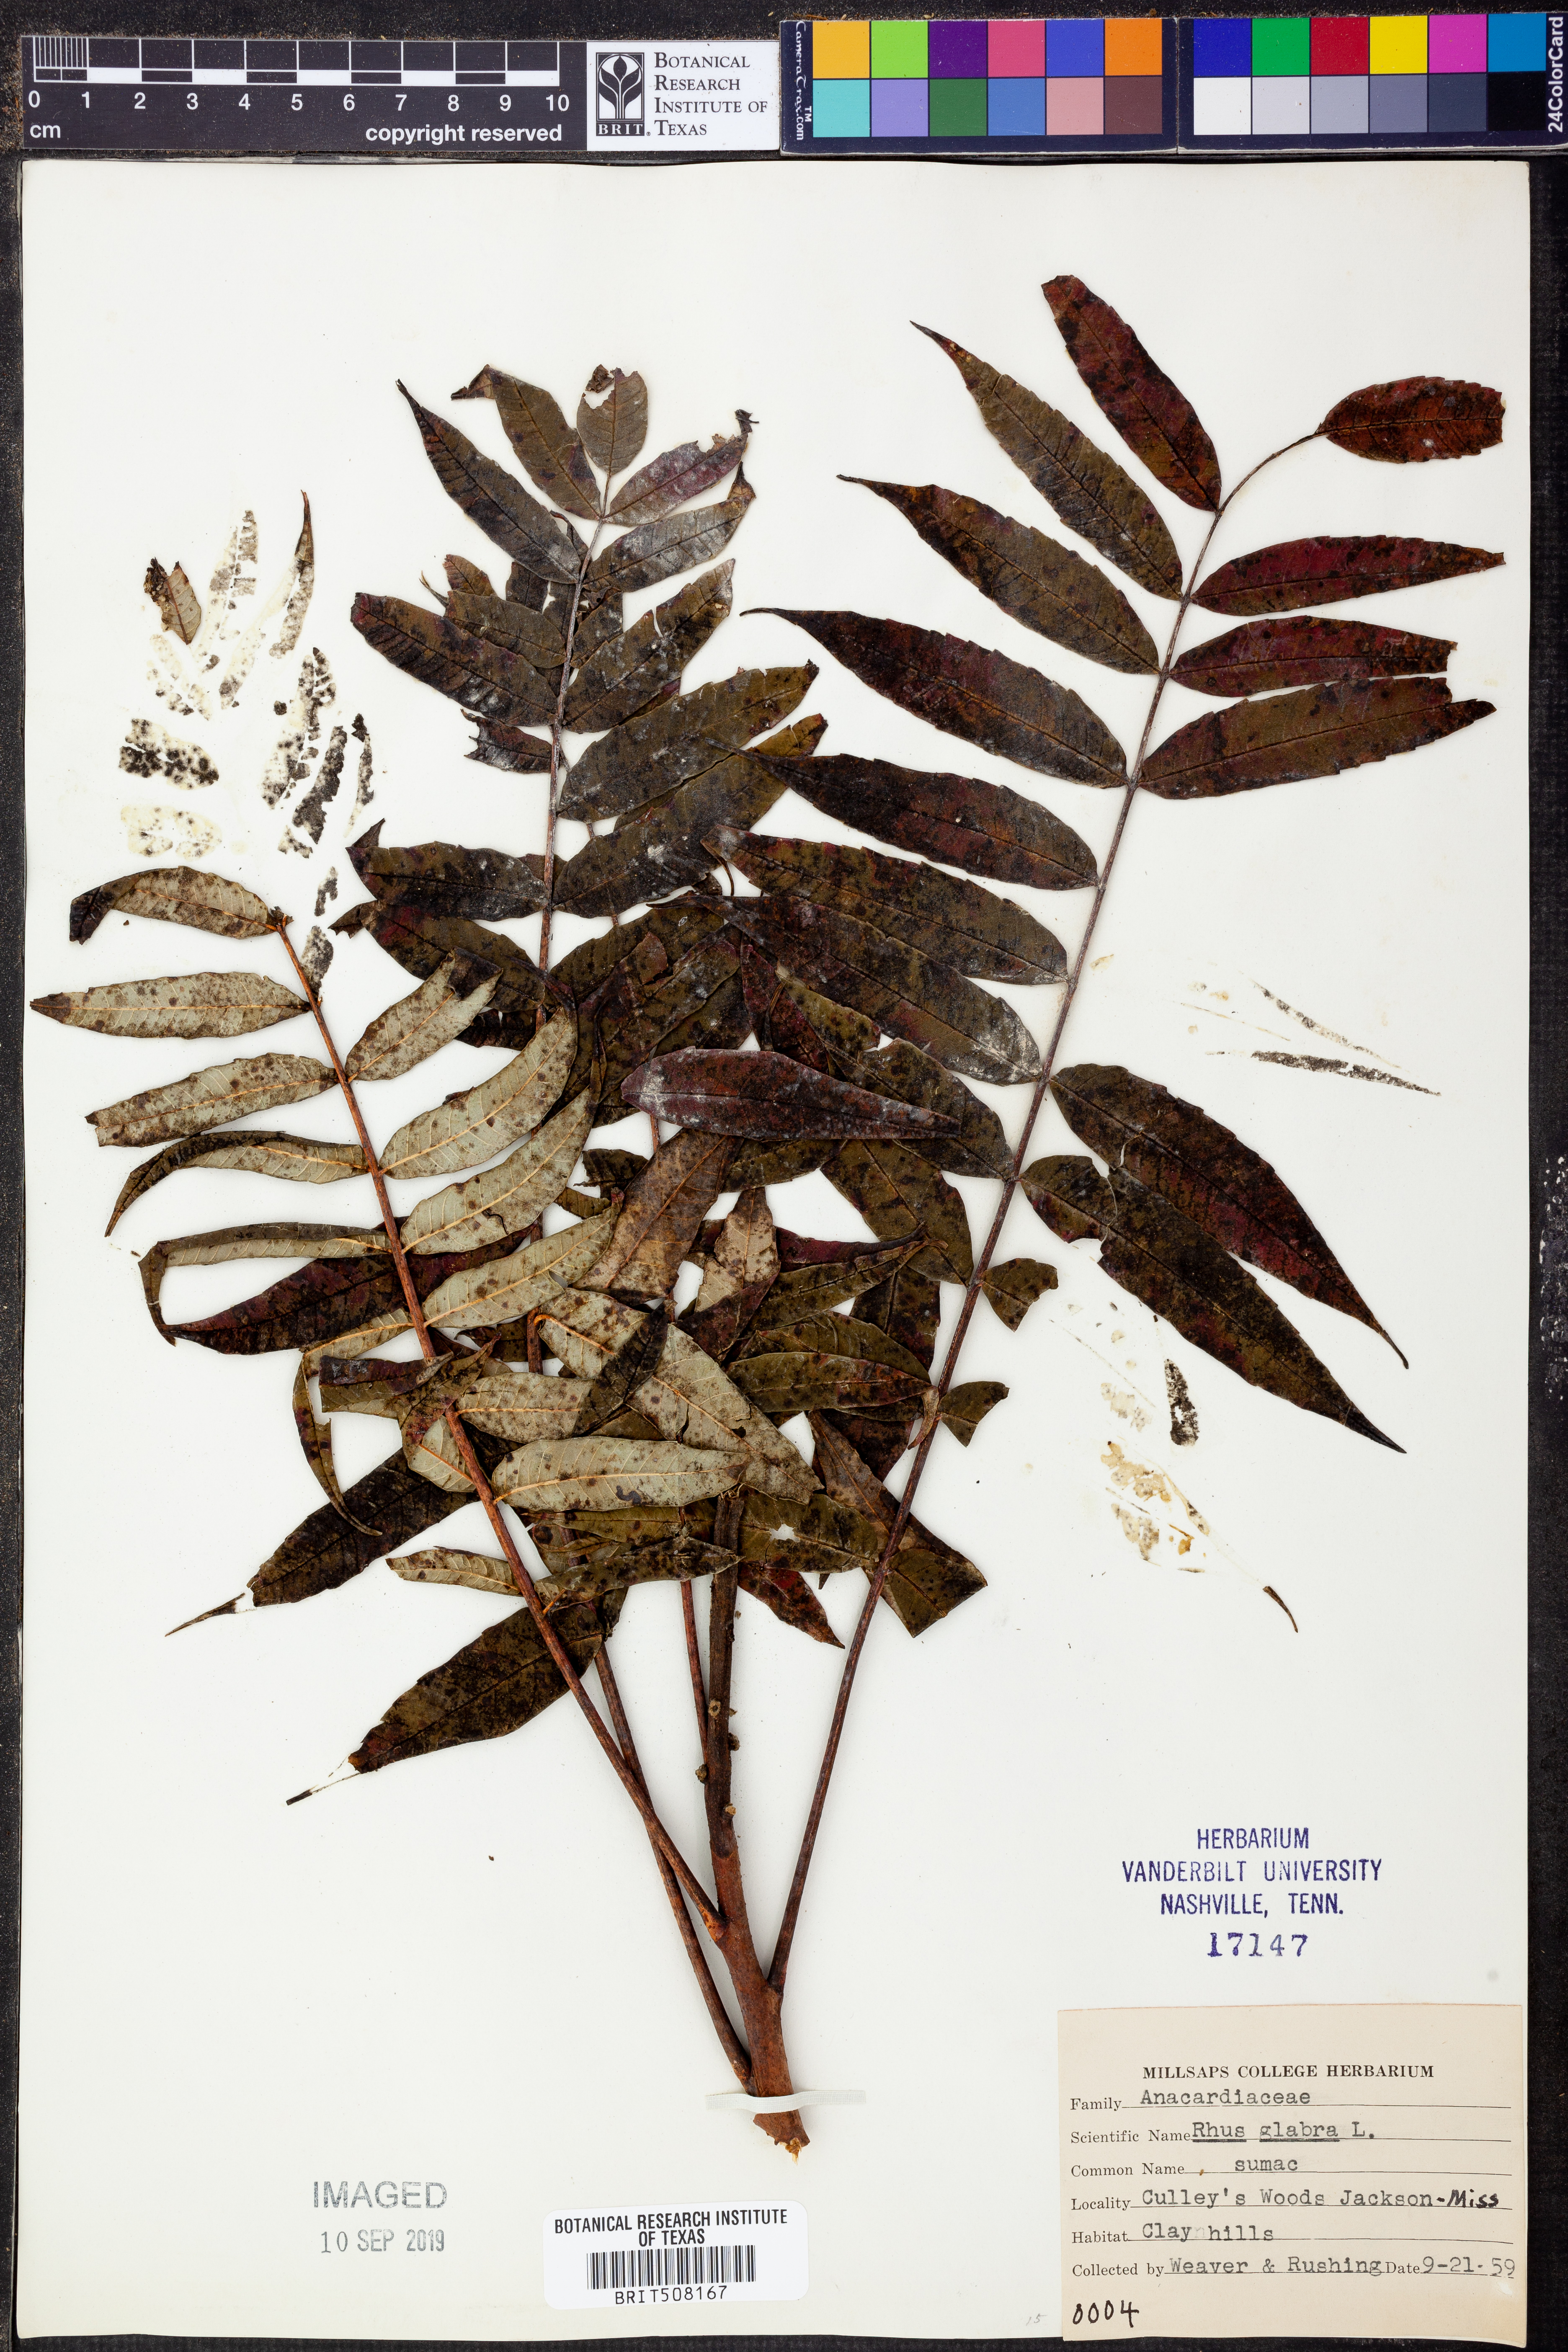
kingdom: Plantae
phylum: Tracheophyta
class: Magnoliopsida
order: Sapindales
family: Anacardiaceae
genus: Rhus
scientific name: Rhus glabra
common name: Scarlet sumac
